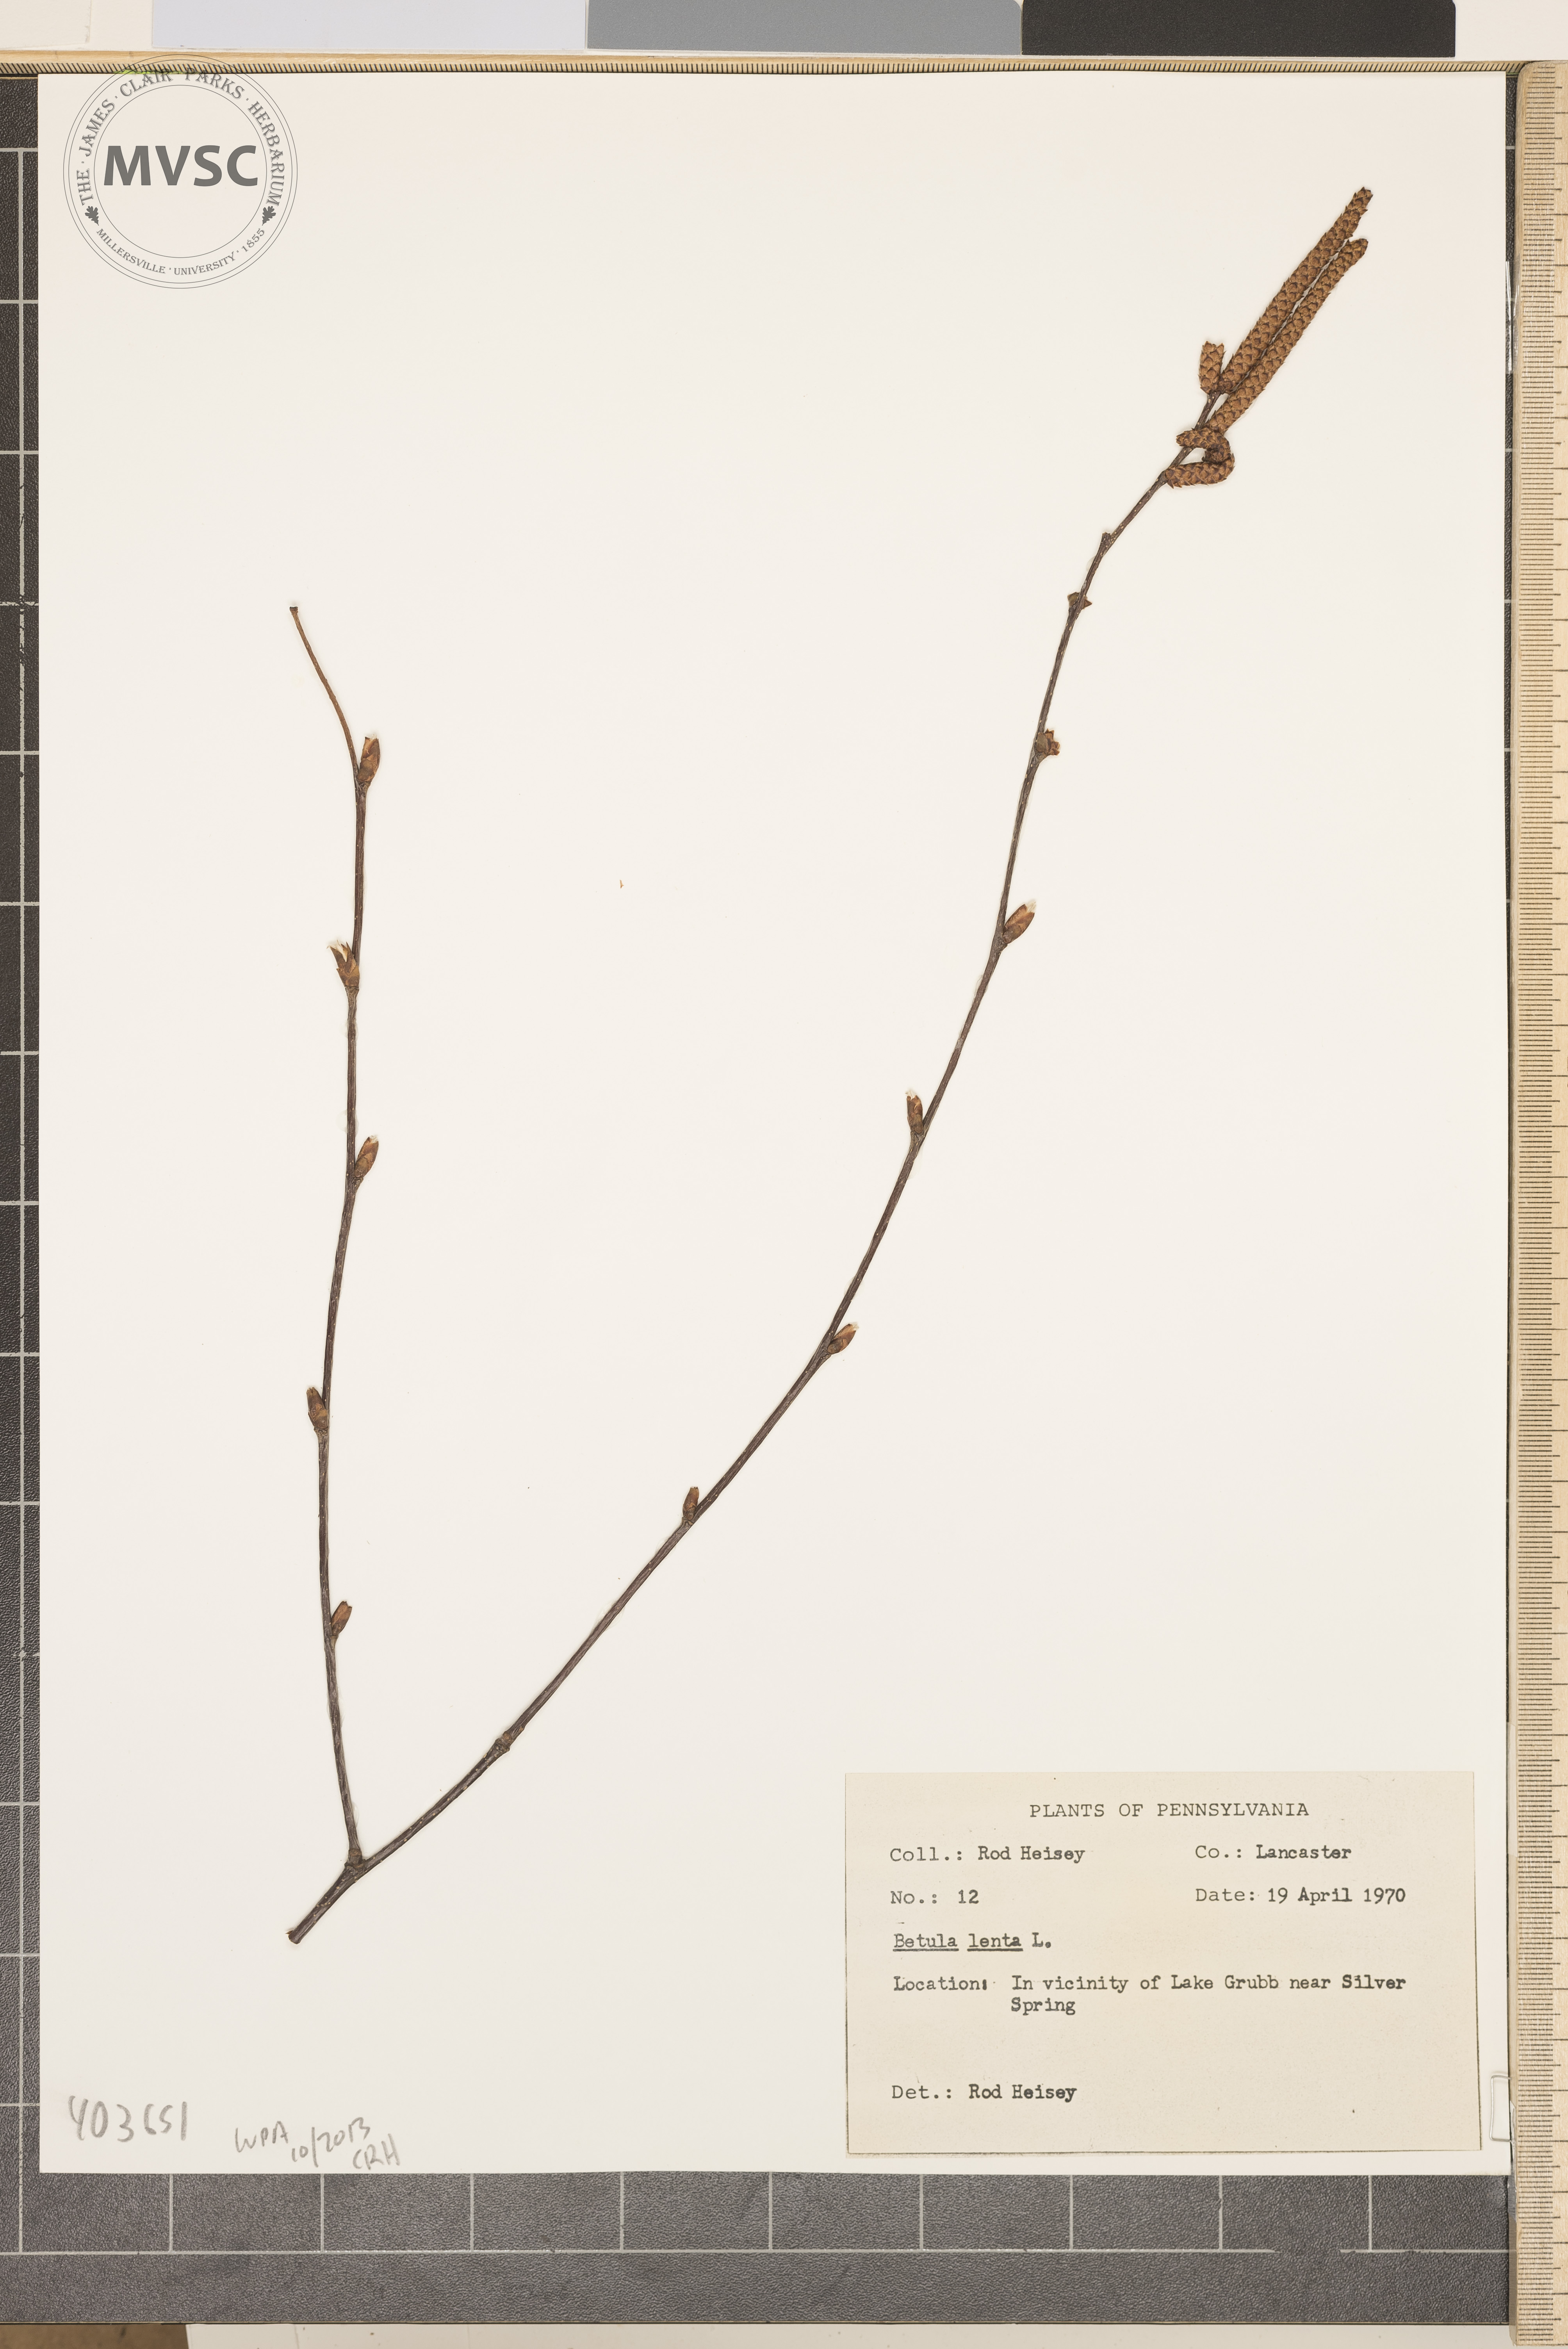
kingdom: Plantae
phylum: Tracheophyta
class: Magnoliopsida
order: Fagales
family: Betulaceae
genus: Betula
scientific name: Betula lenta
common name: Sweet Birch
